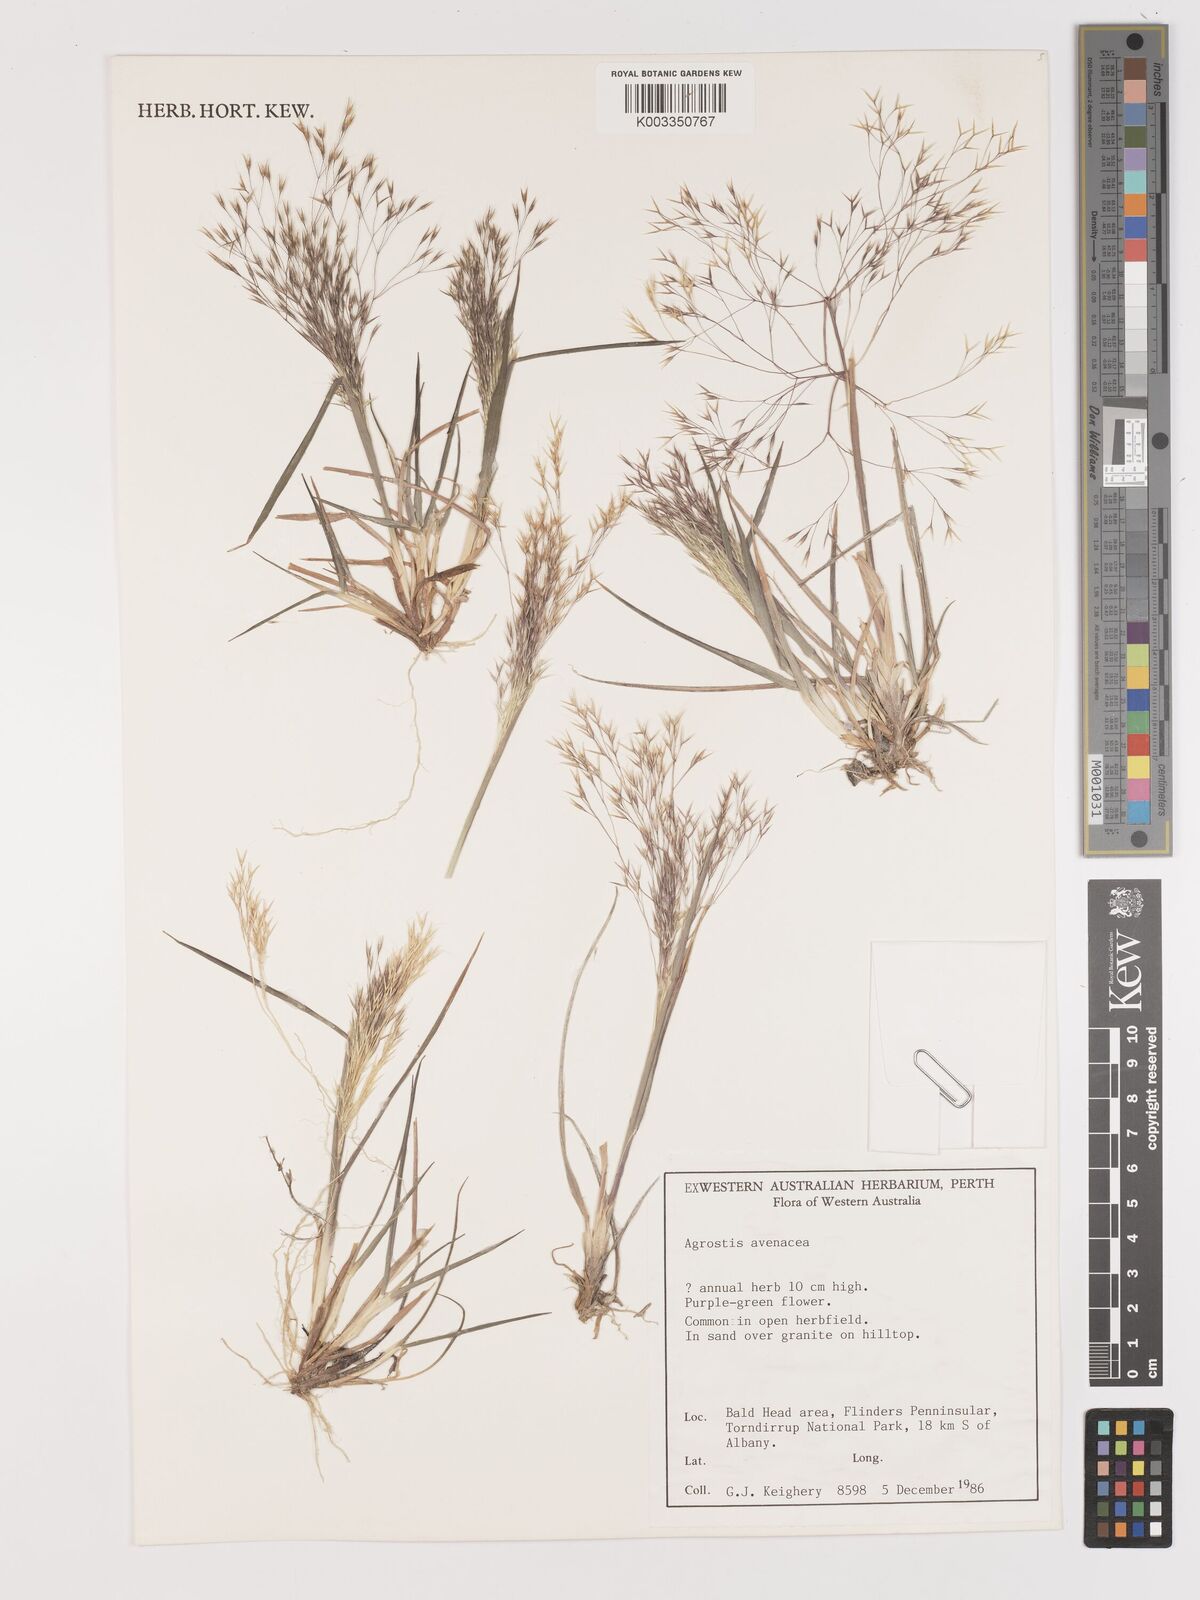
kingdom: Plantae
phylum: Tracheophyta
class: Liliopsida
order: Poales
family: Poaceae
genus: Lachnagrostis
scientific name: Lachnagrostis filiformis
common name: Bentgrass
